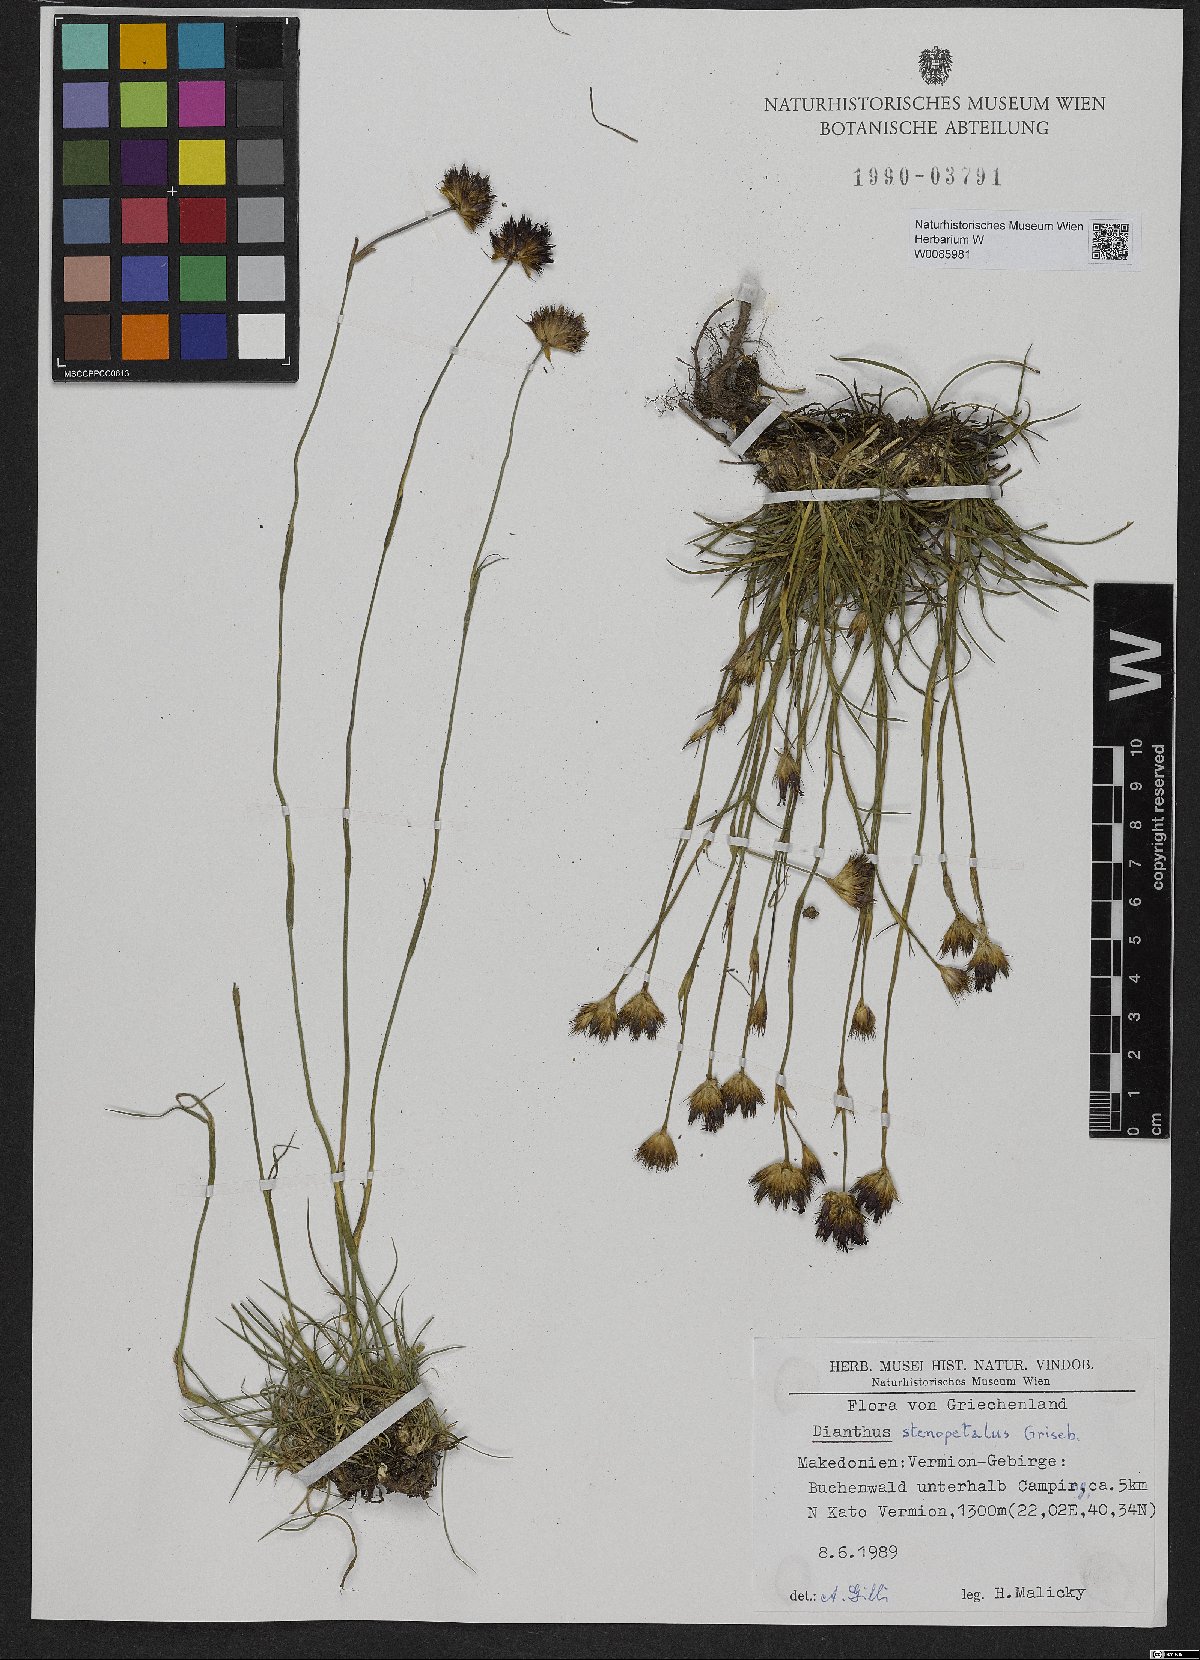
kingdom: Plantae
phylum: Tracheophyta
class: Magnoliopsida
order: Caryophyllales
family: Caryophyllaceae
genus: Dianthus
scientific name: Dianthus stenopetalus
